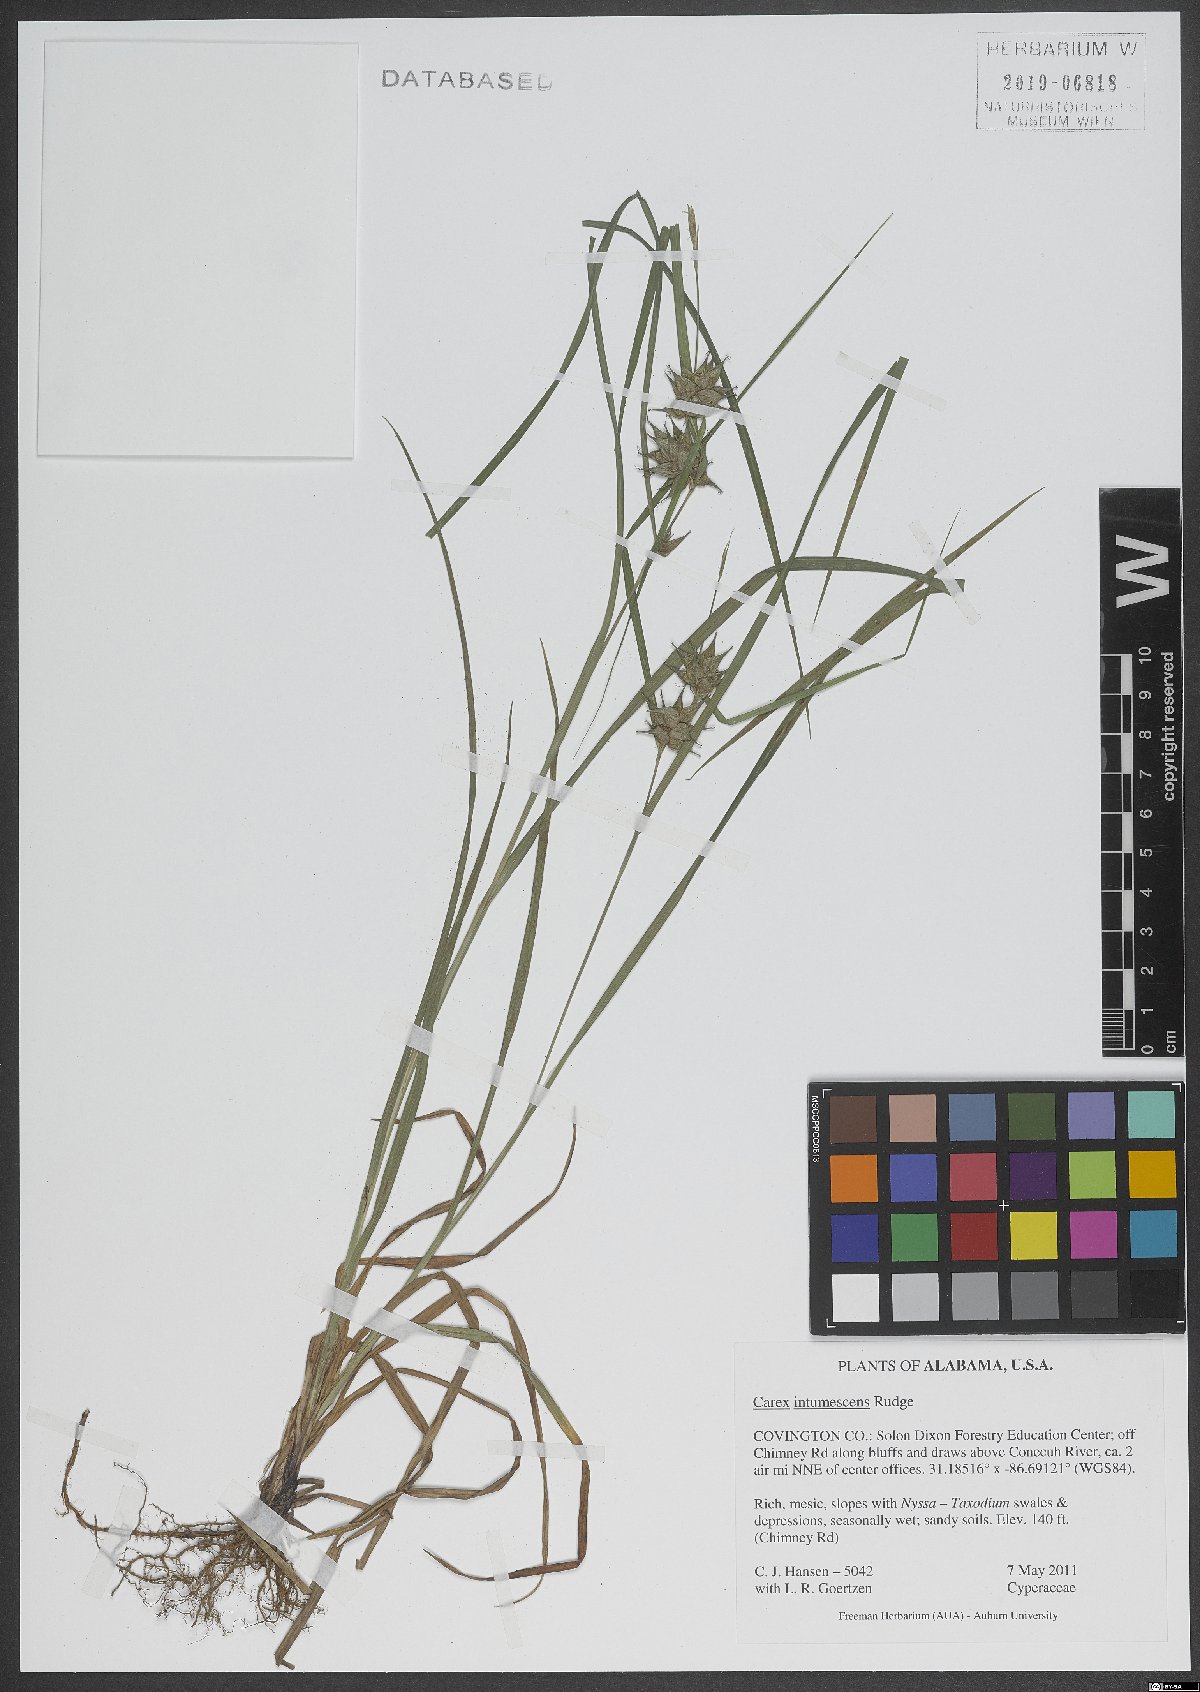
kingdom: Plantae
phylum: Tracheophyta
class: Liliopsida
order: Poales
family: Cyperaceae
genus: Carex
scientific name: Carex intumescens
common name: Greater bladder sedge
